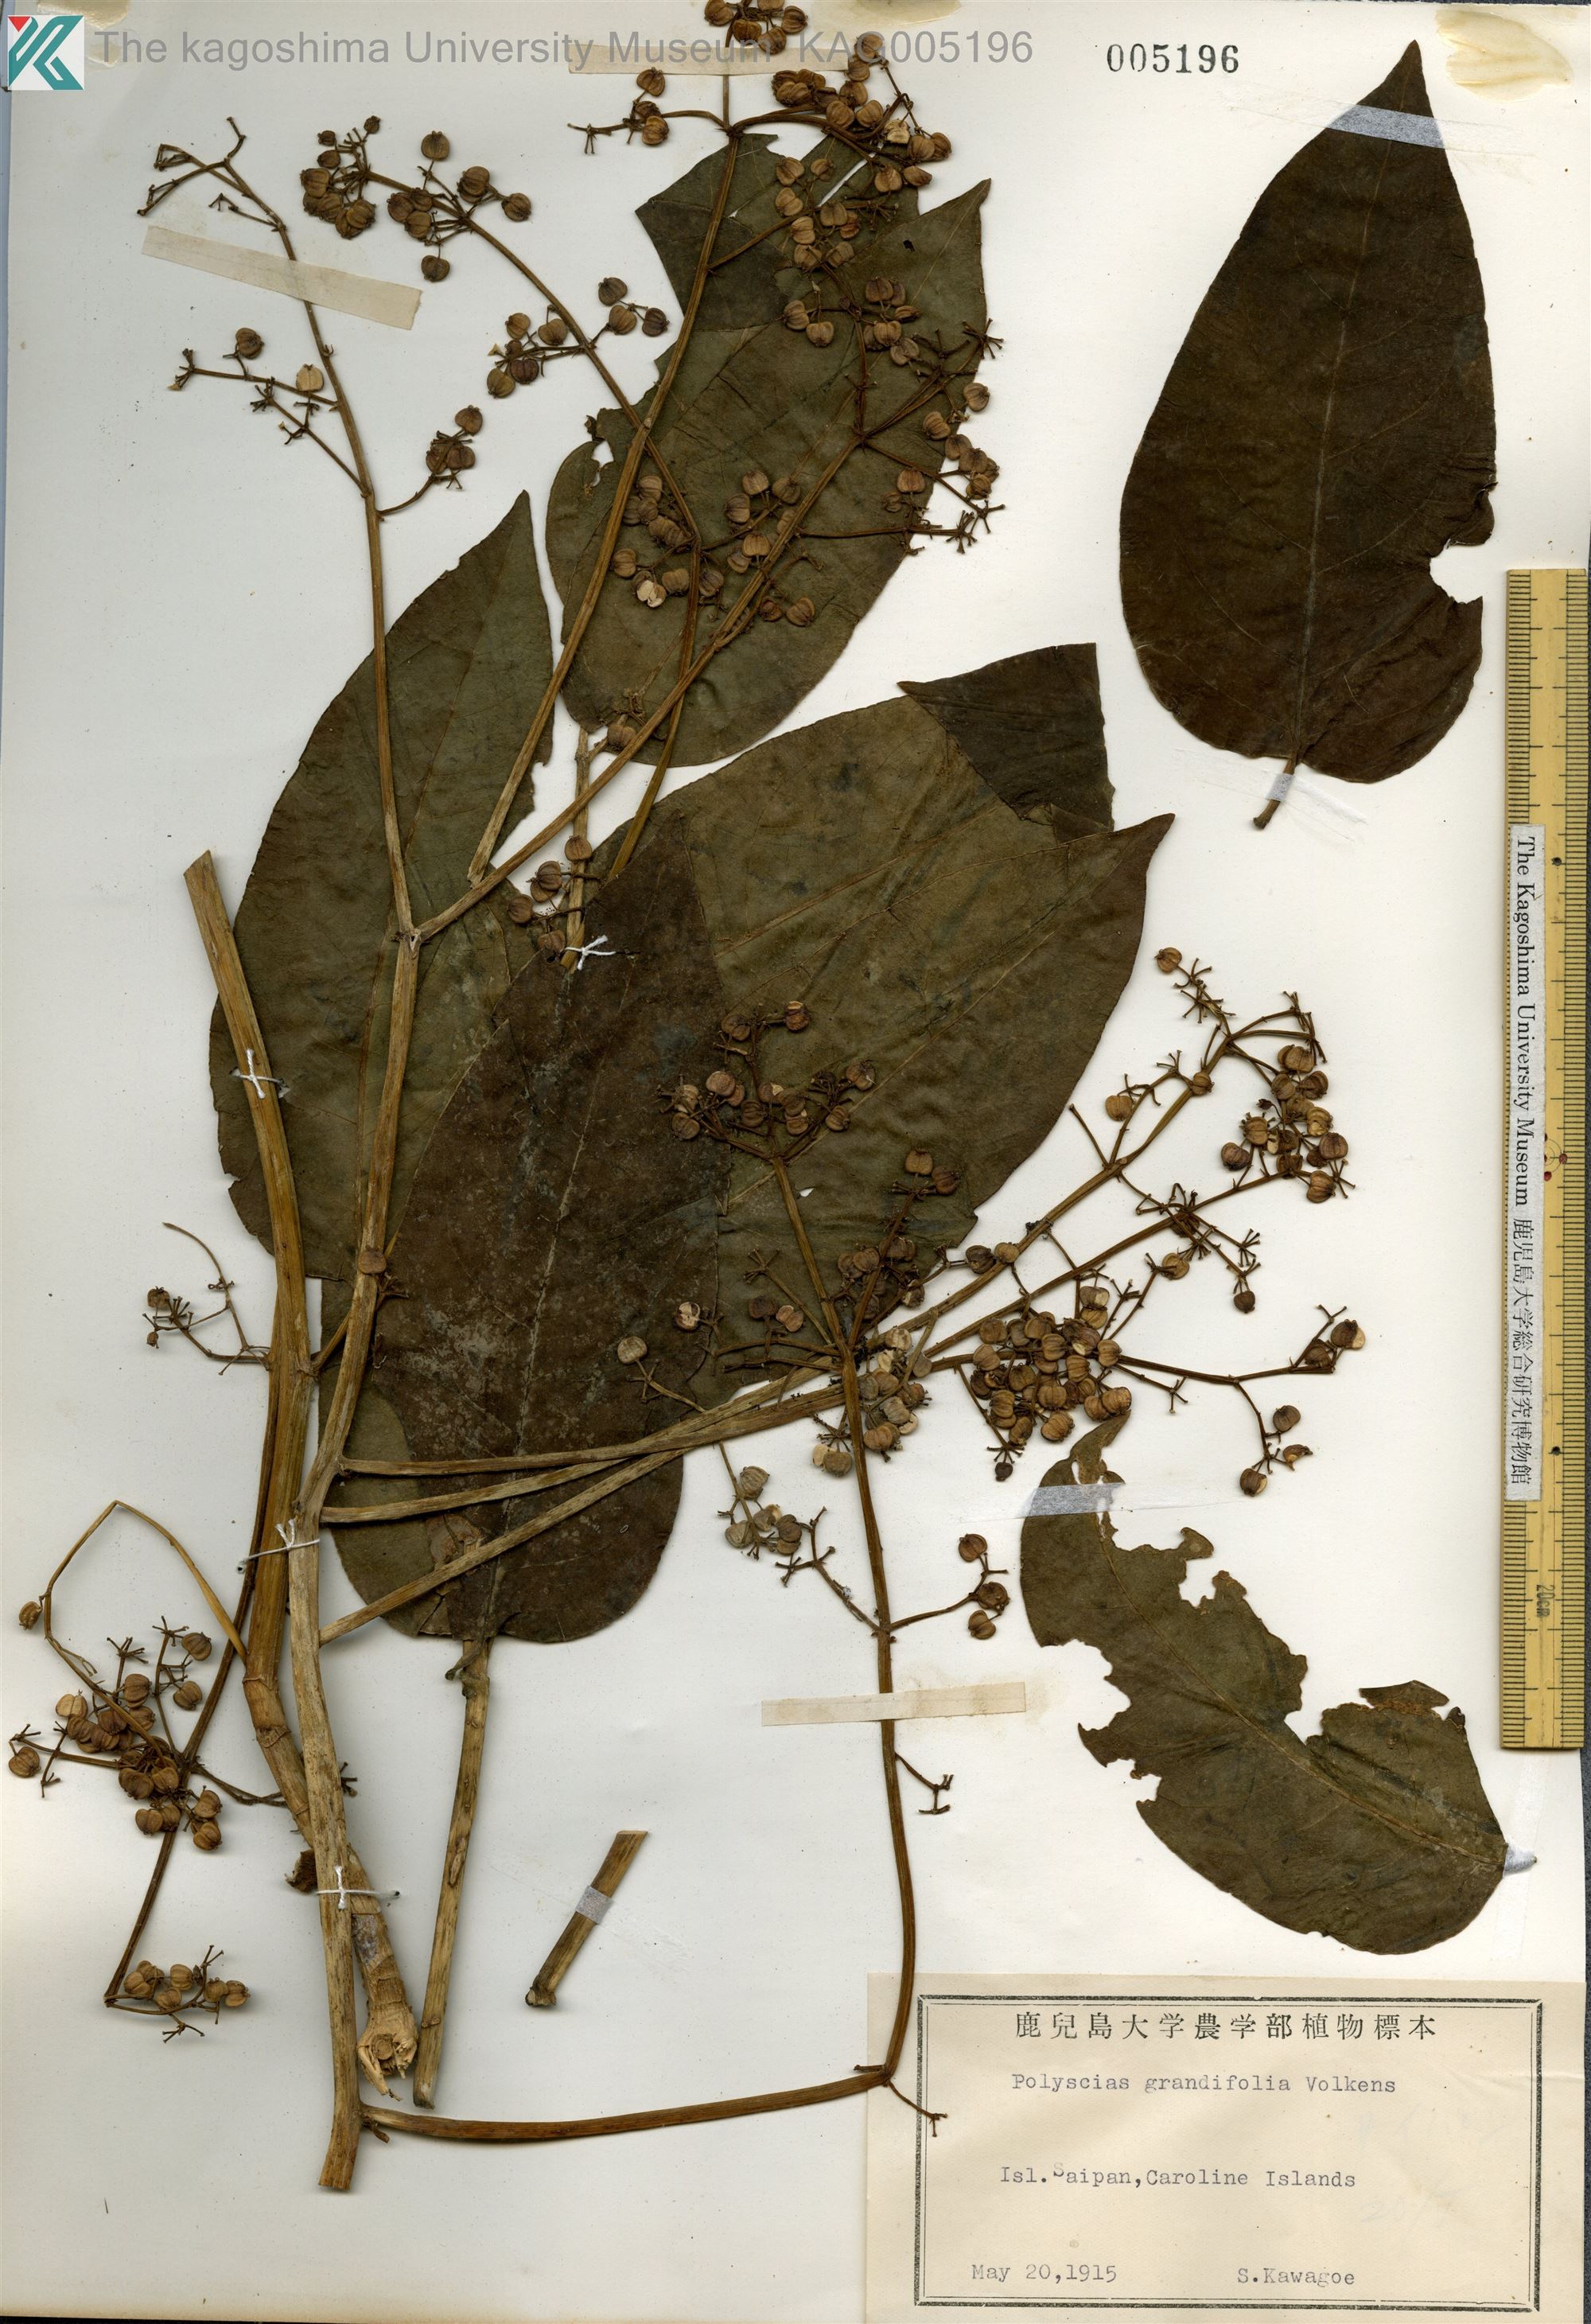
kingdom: Plantae
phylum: Tracheophyta
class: Magnoliopsida
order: Apiales
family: Araliaceae
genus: Polyscias
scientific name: Polyscias macgillivrayi
